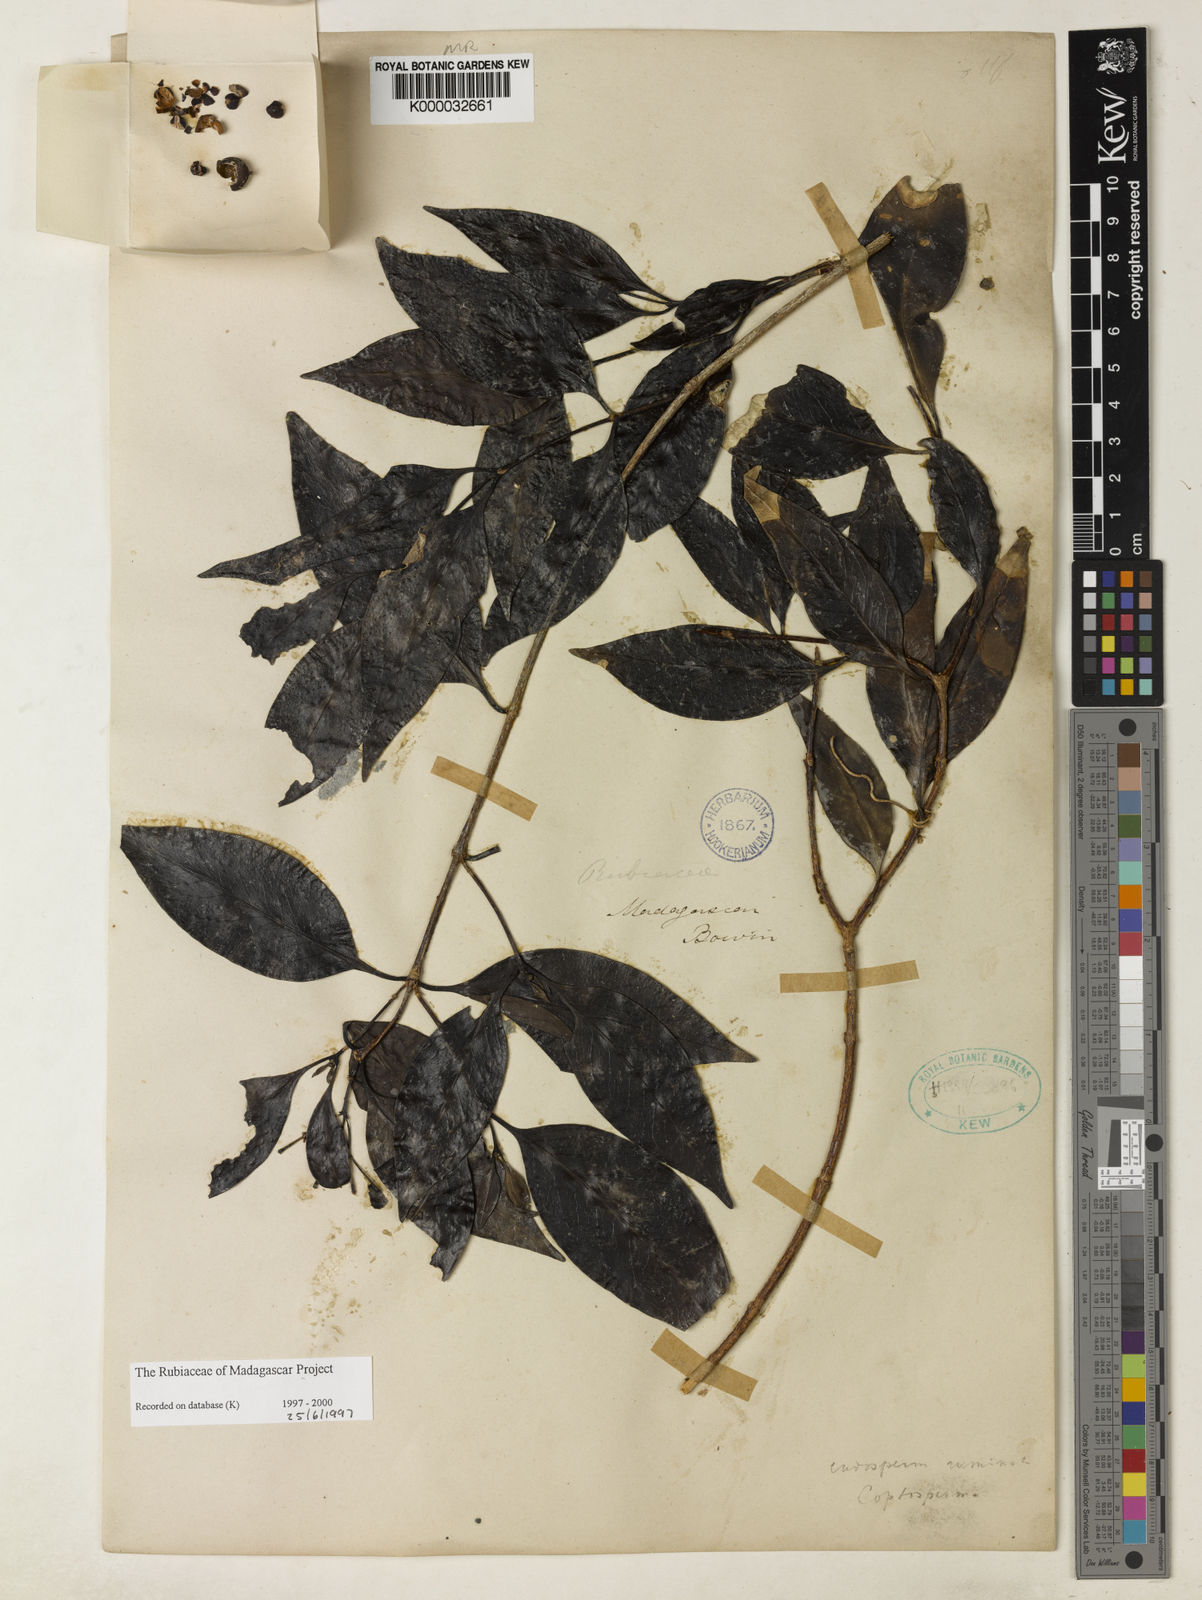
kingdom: Plantae
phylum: Tracheophyta
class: Magnoliopsida
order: Gentianales
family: Rubiaceae
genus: Coptosperma
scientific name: Coptosperma nigrescens
